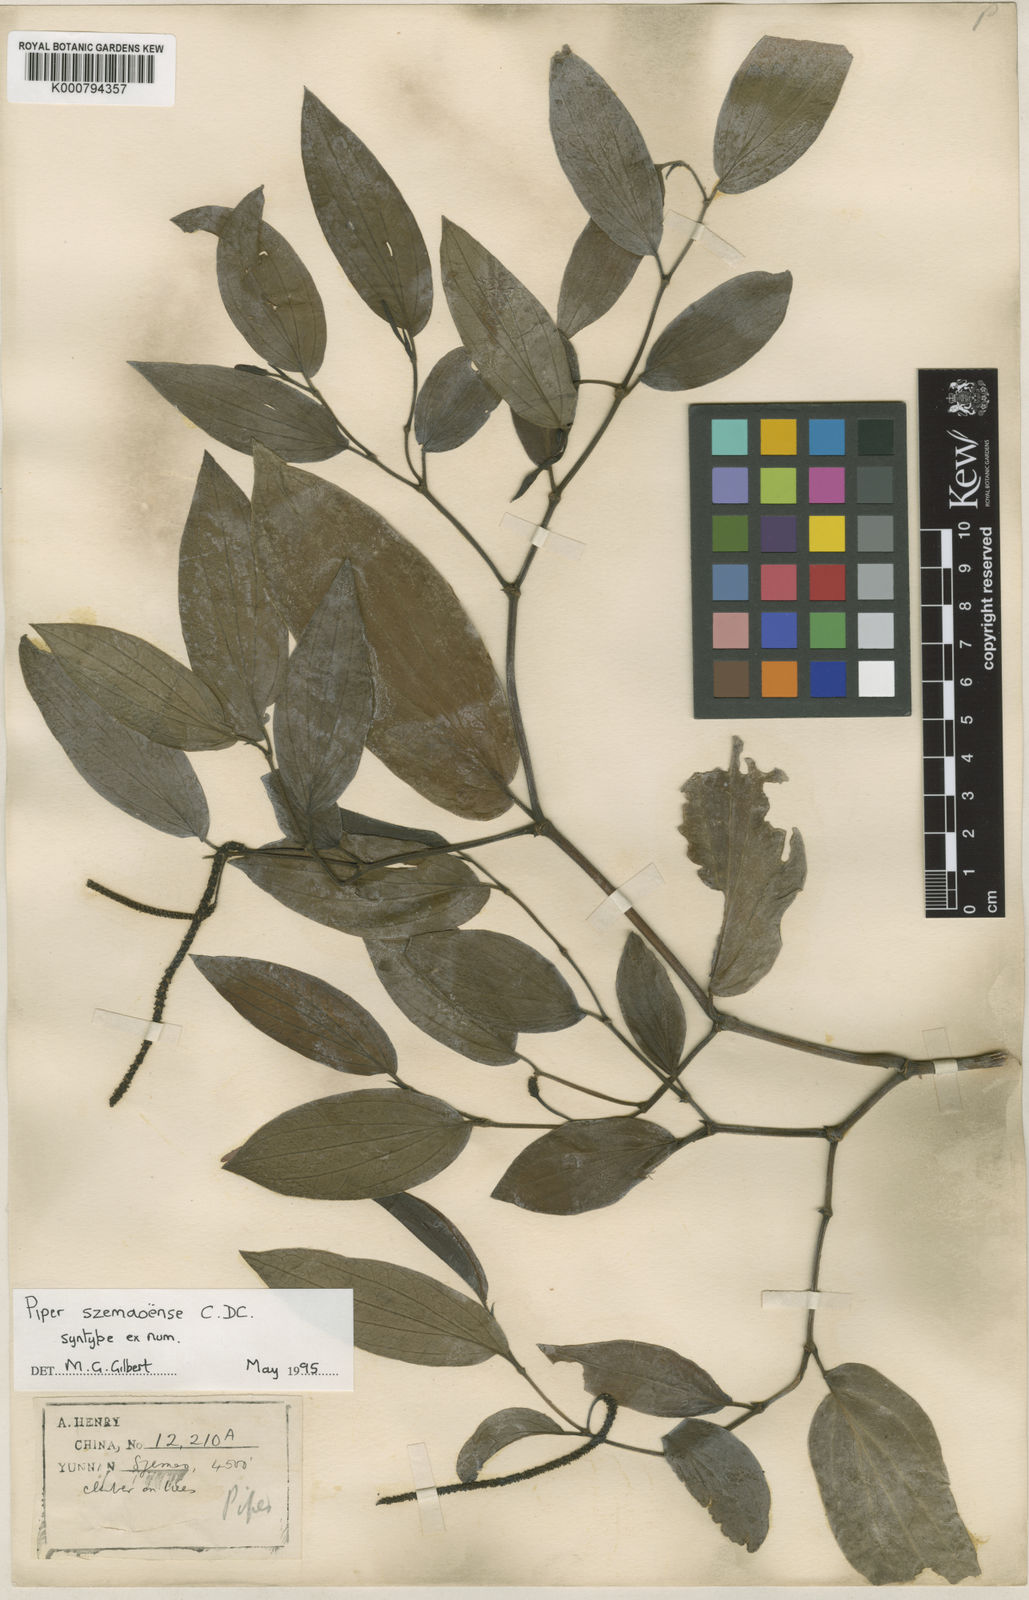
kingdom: Plantae
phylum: Tracheophyta
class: Magnoliopsida
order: Piperales
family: Piperaceae
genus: Piper
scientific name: Piper macropodum
